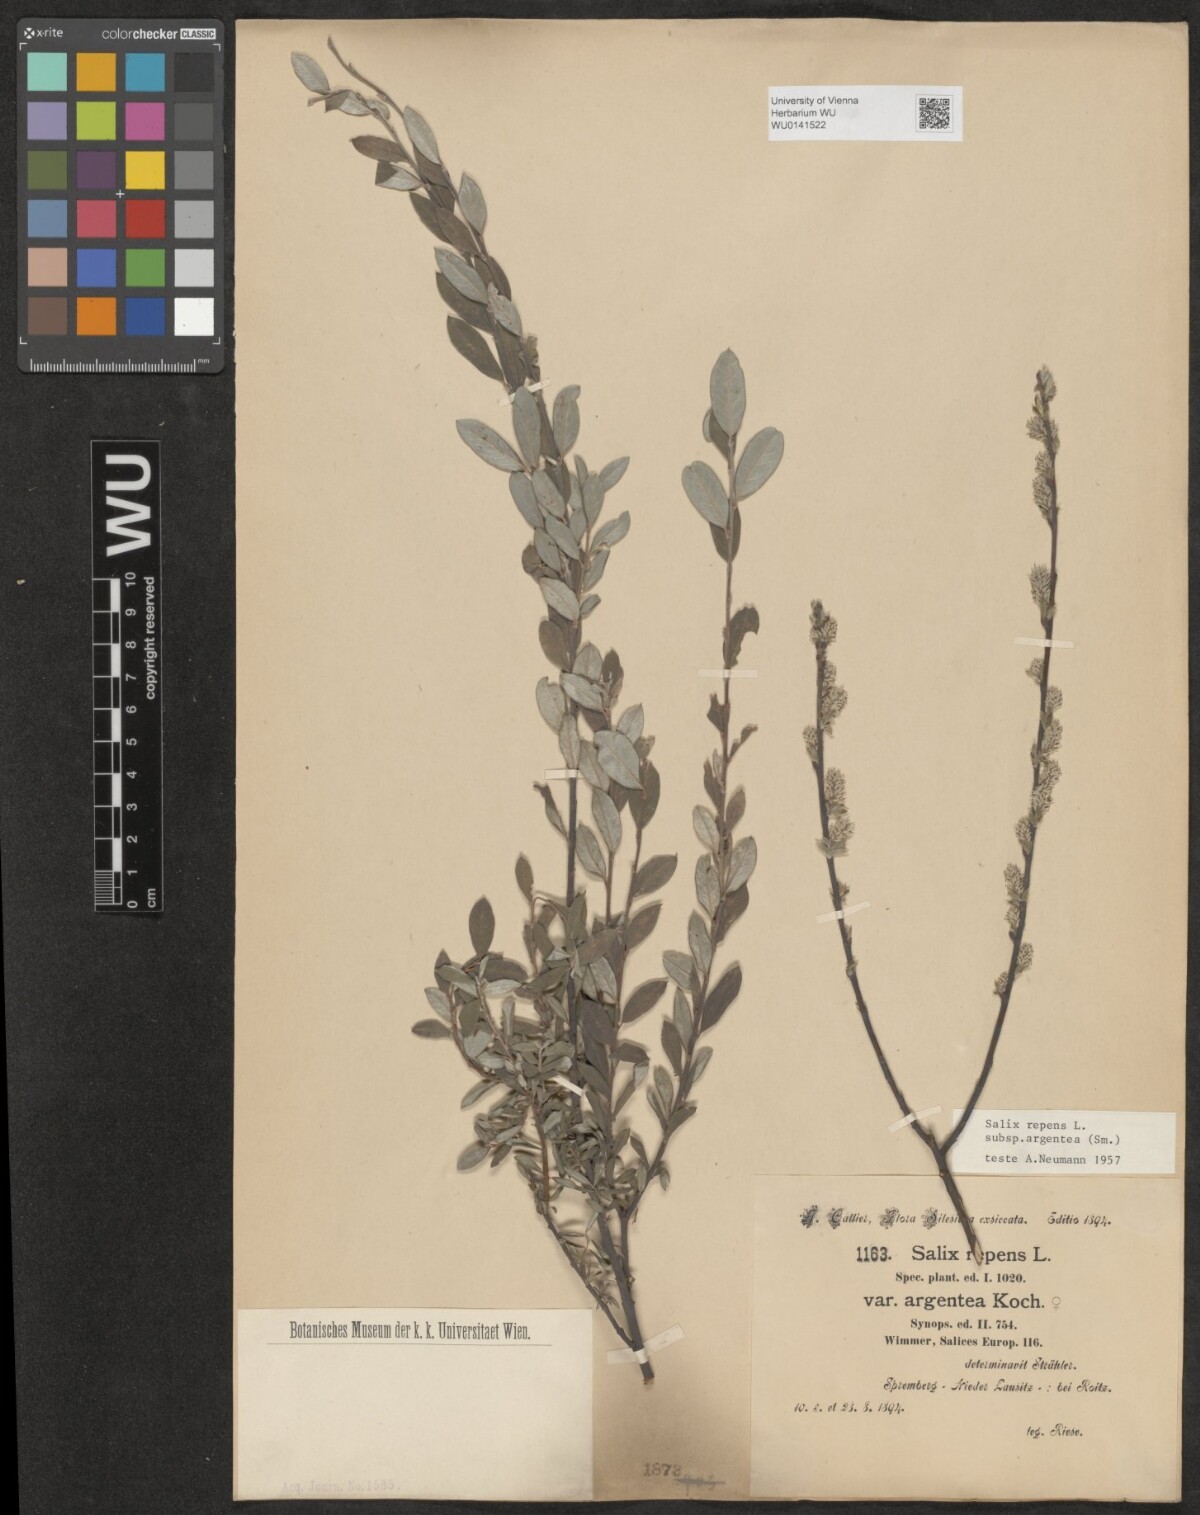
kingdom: Plantae
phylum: Tracheophyta
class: Magnoliopsida
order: Malpighiales
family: Salicaceae
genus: Salix
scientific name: Salix repens
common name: Creeping willow
